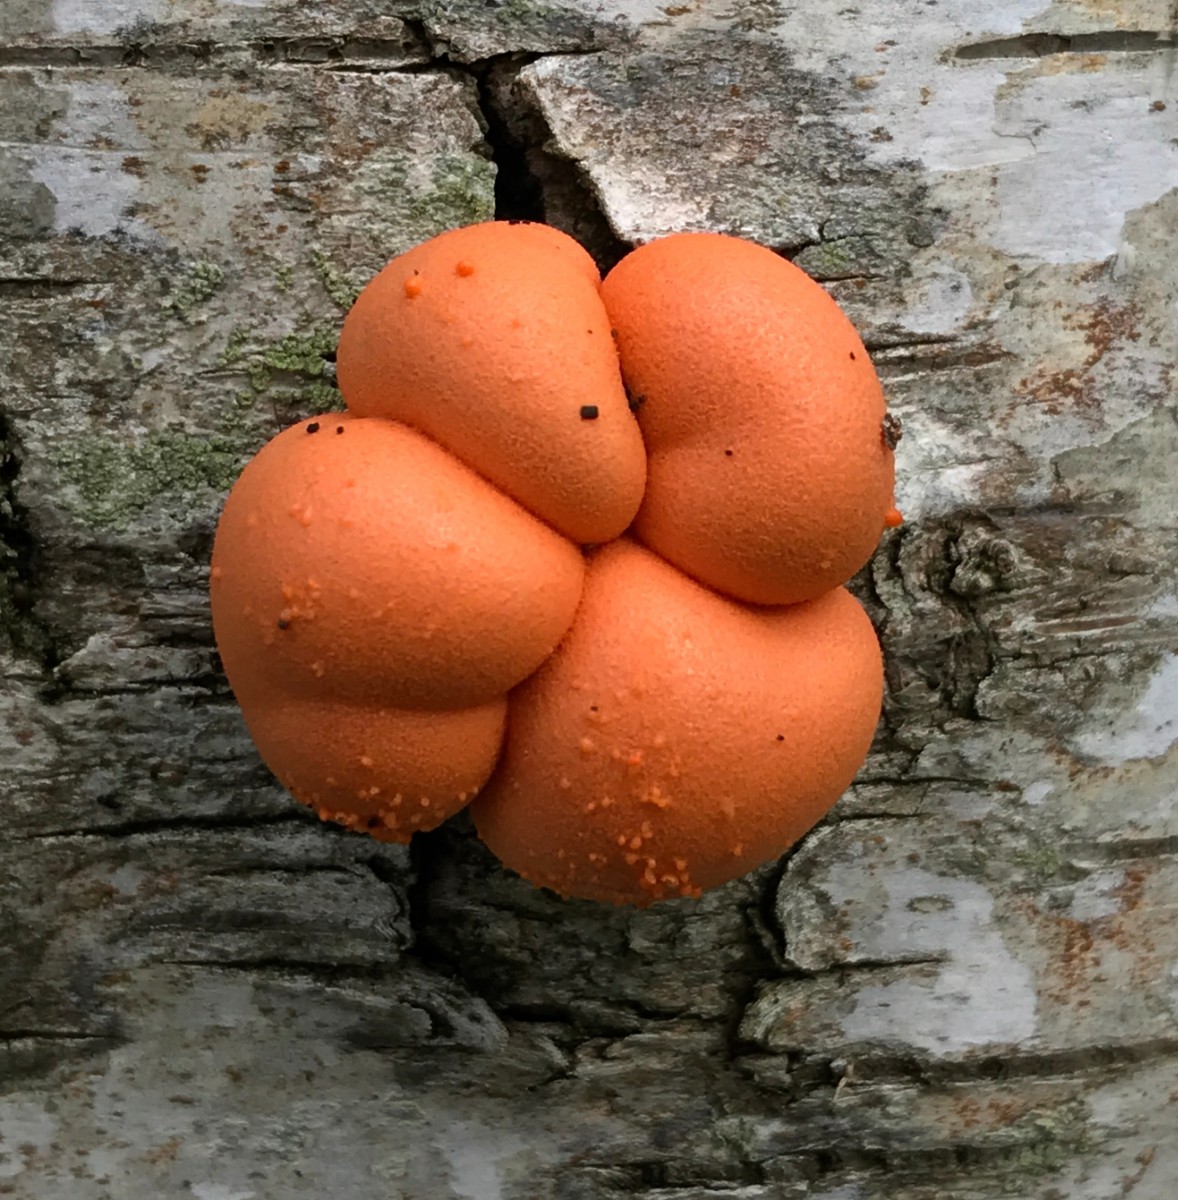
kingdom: Protozoa
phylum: Mycetozoa
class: Myxomycetes
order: Cribrariales
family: Tubiferaceae
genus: Lycogala
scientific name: Lycogala epidendrum
